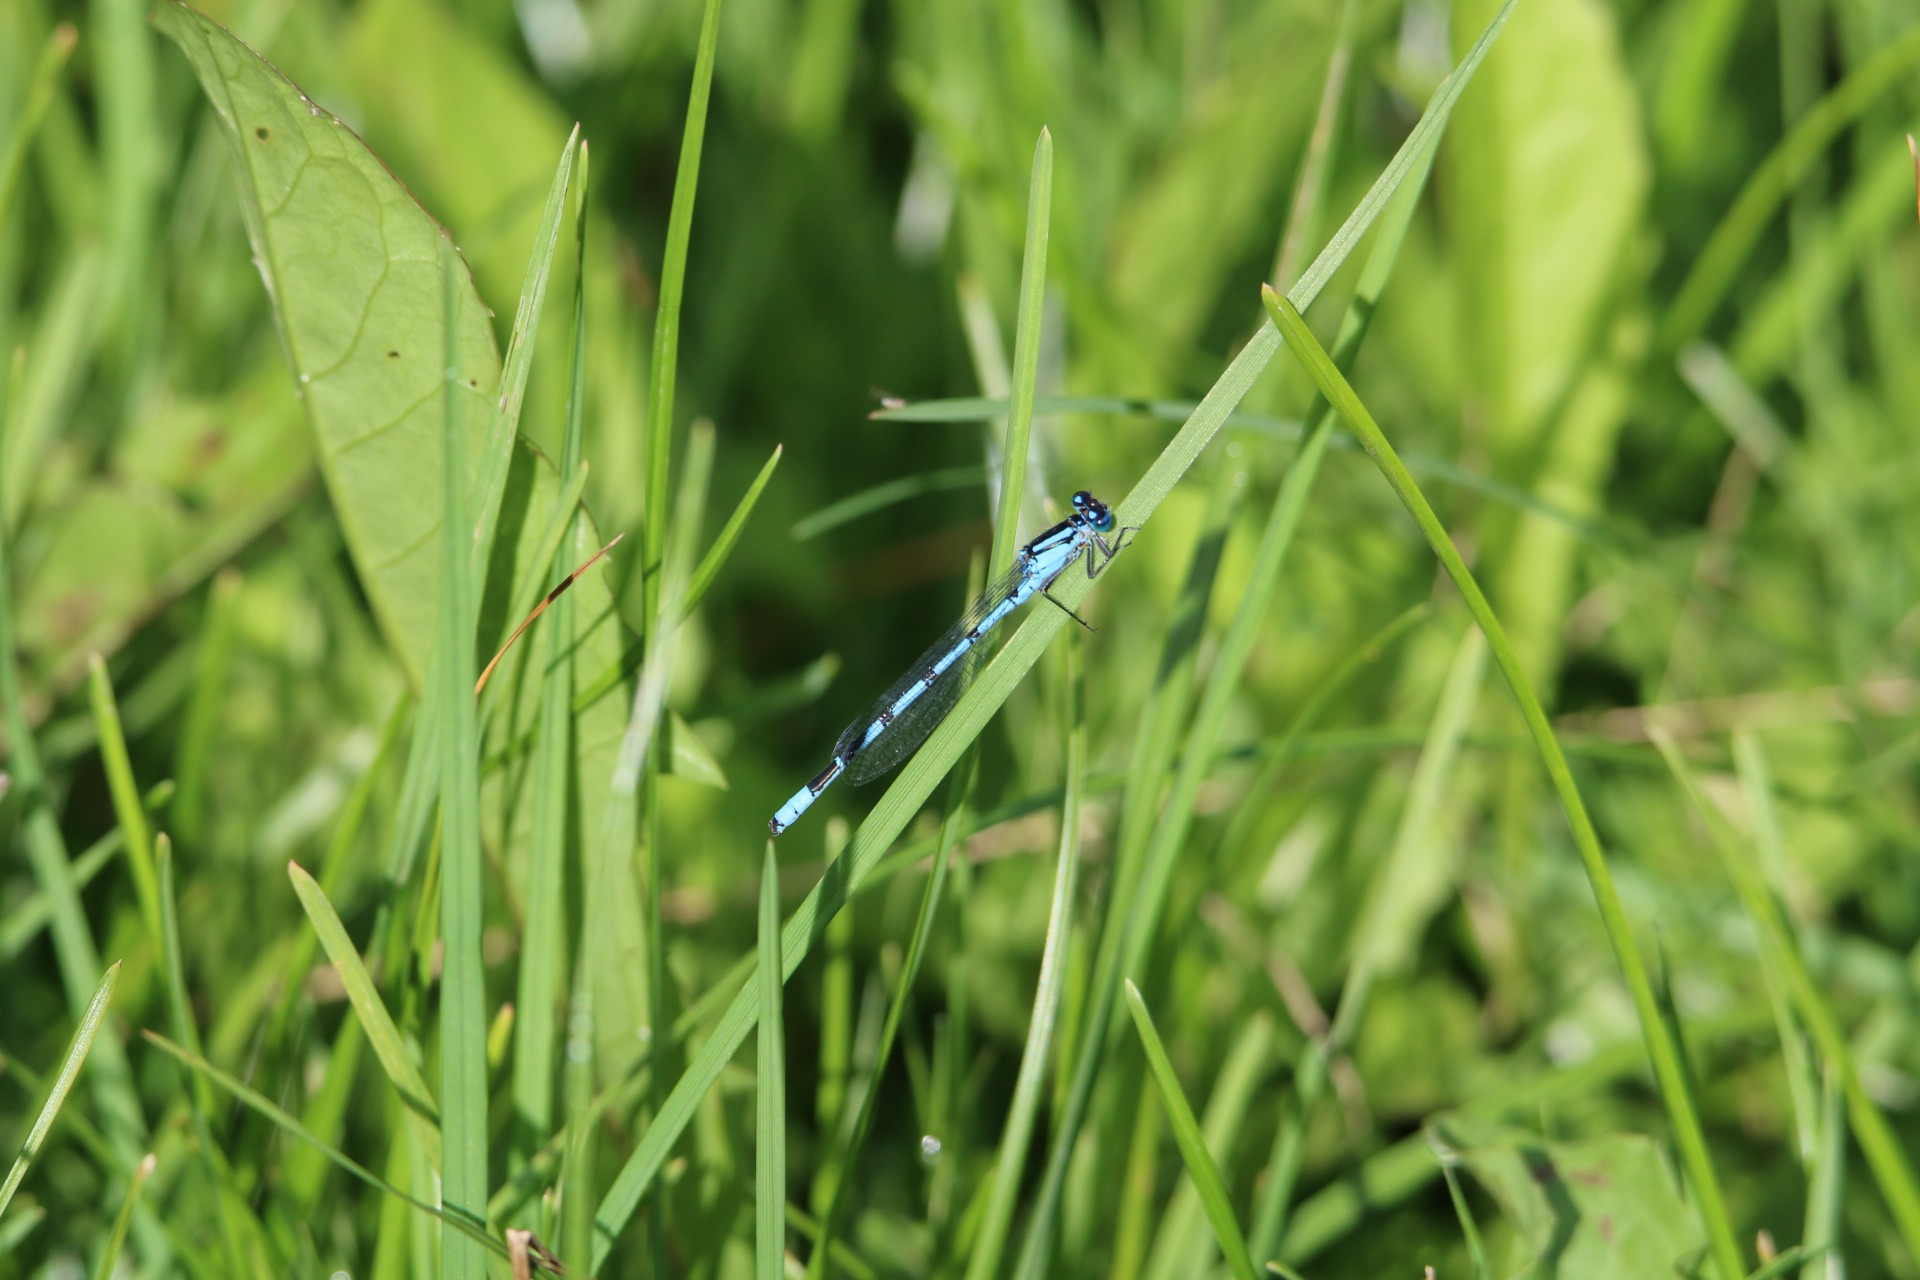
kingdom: Animalia
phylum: Arthropoda
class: Insecta
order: Odonata
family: Coenagrionidae
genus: Enallagma
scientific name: Enallagma cyathigerum
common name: Almindelig vandnymfe
